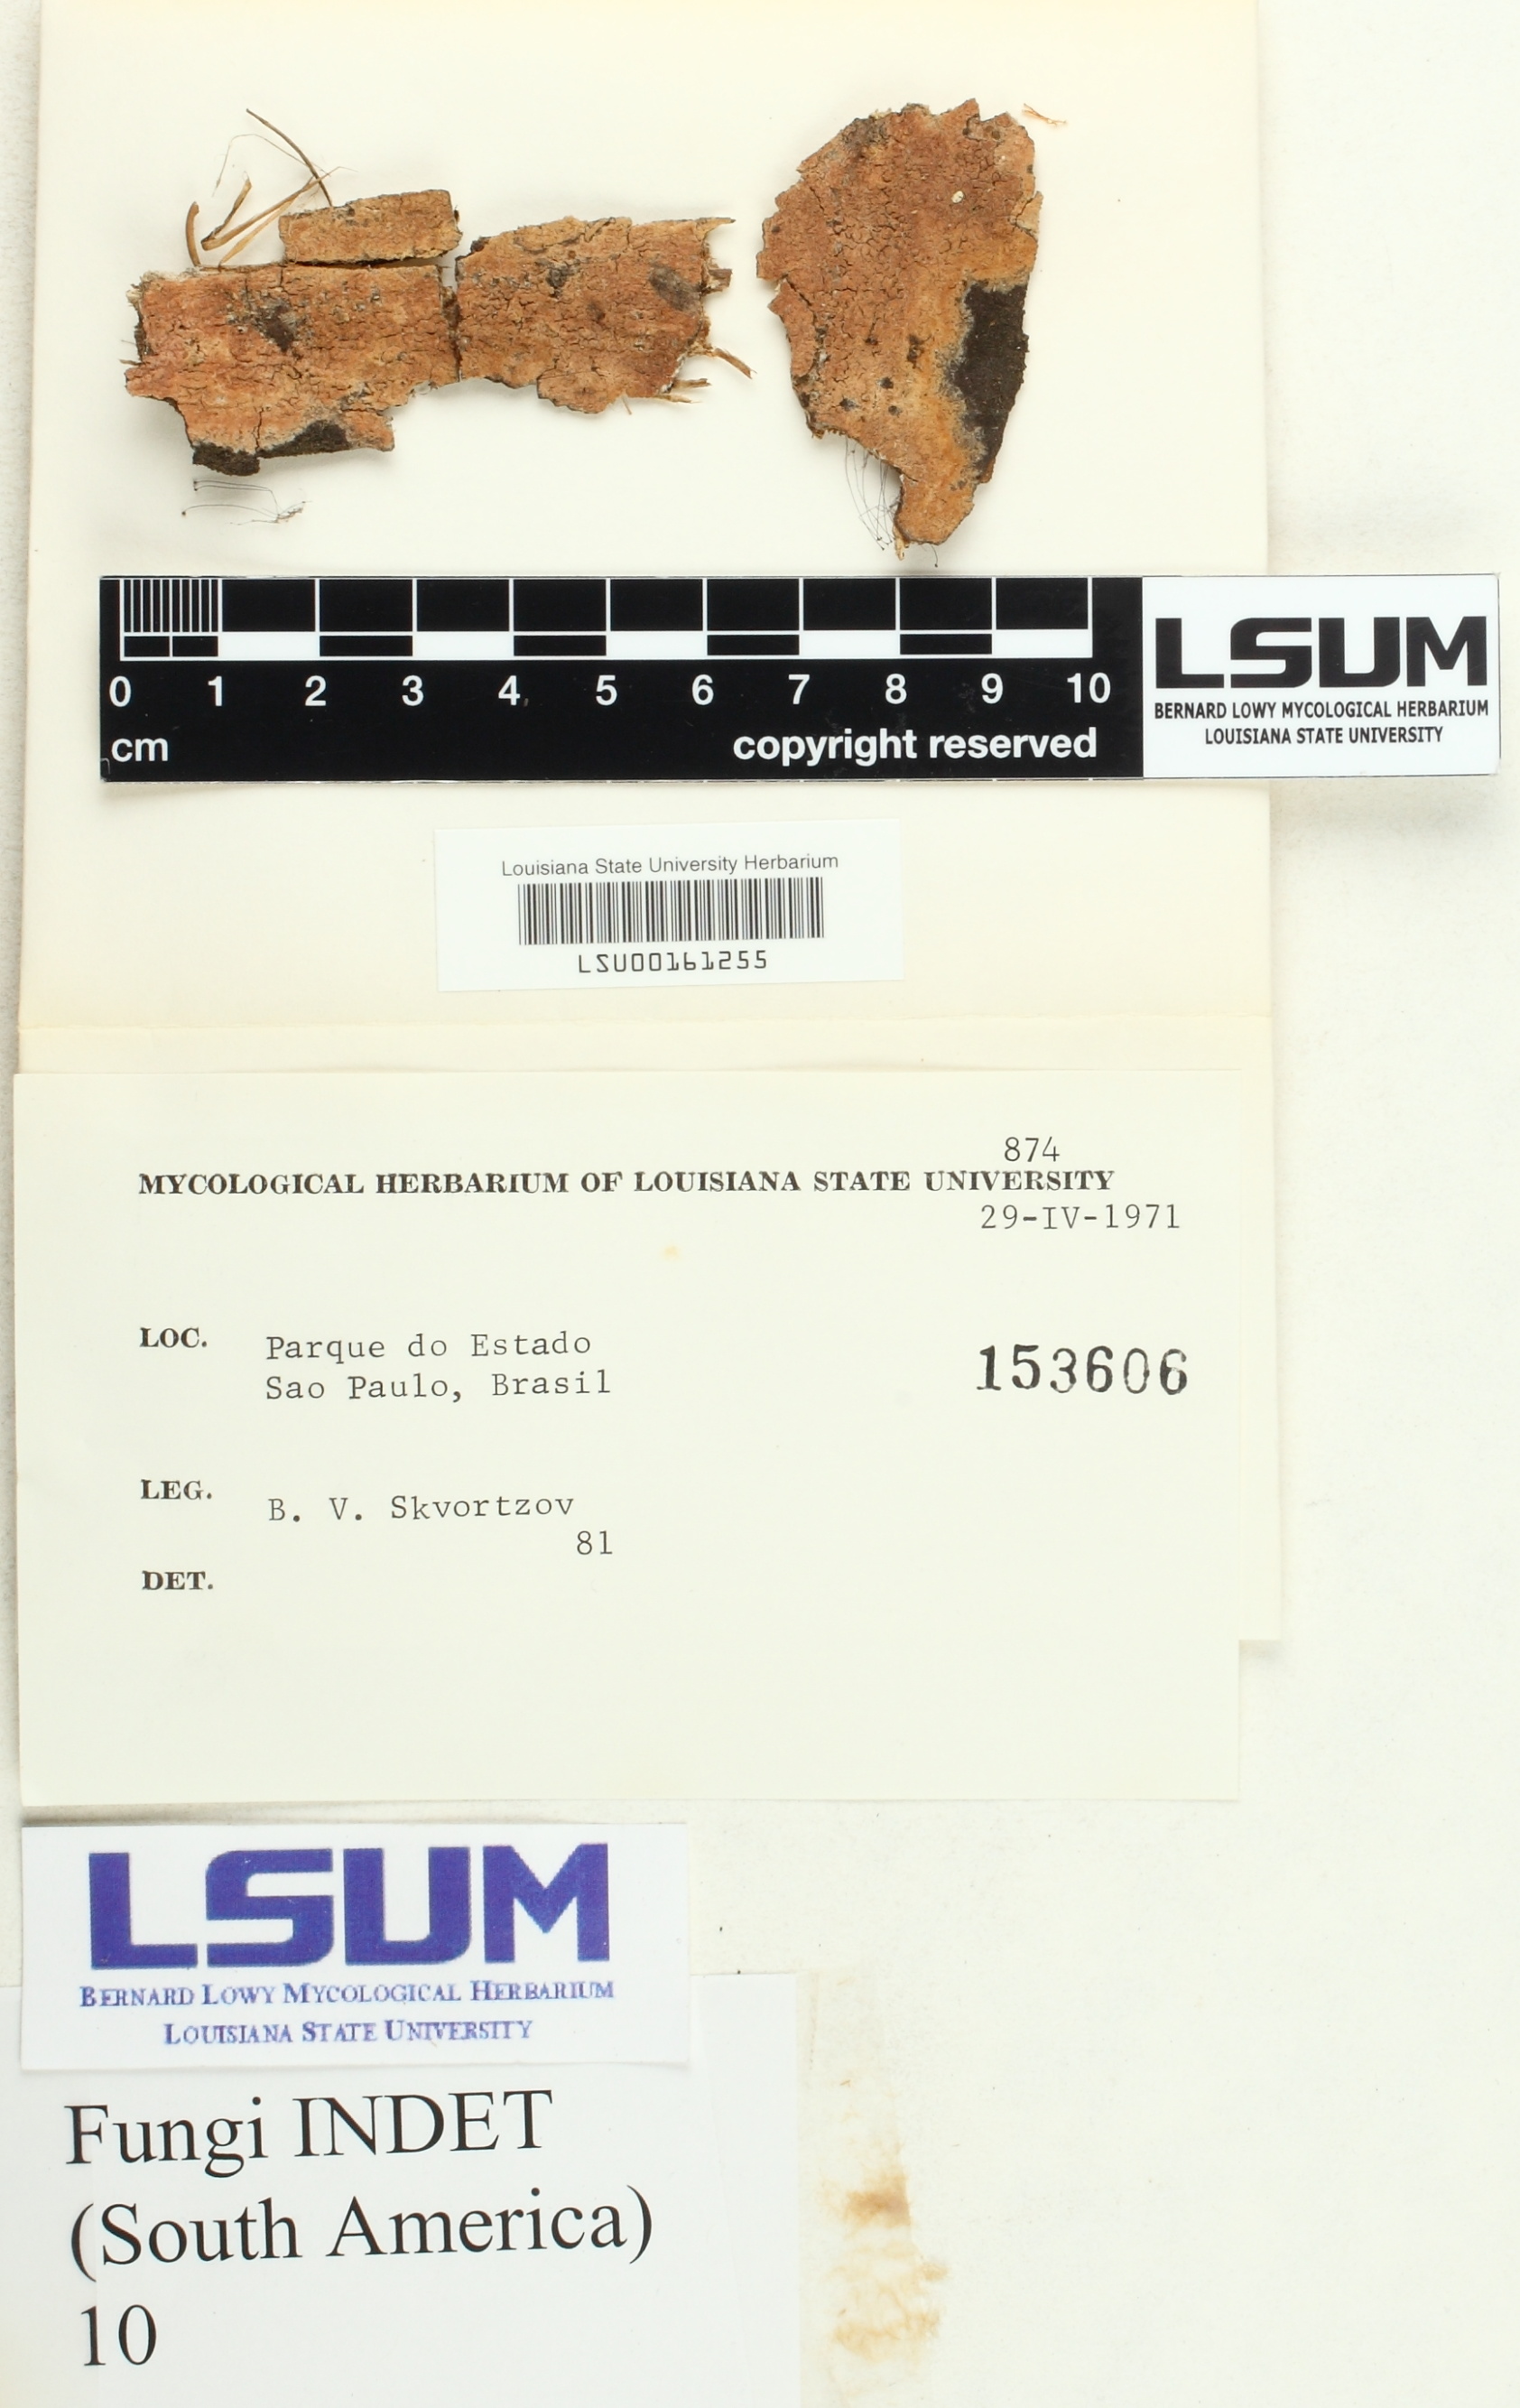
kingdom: Fungi
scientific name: Fungi
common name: Fungi
